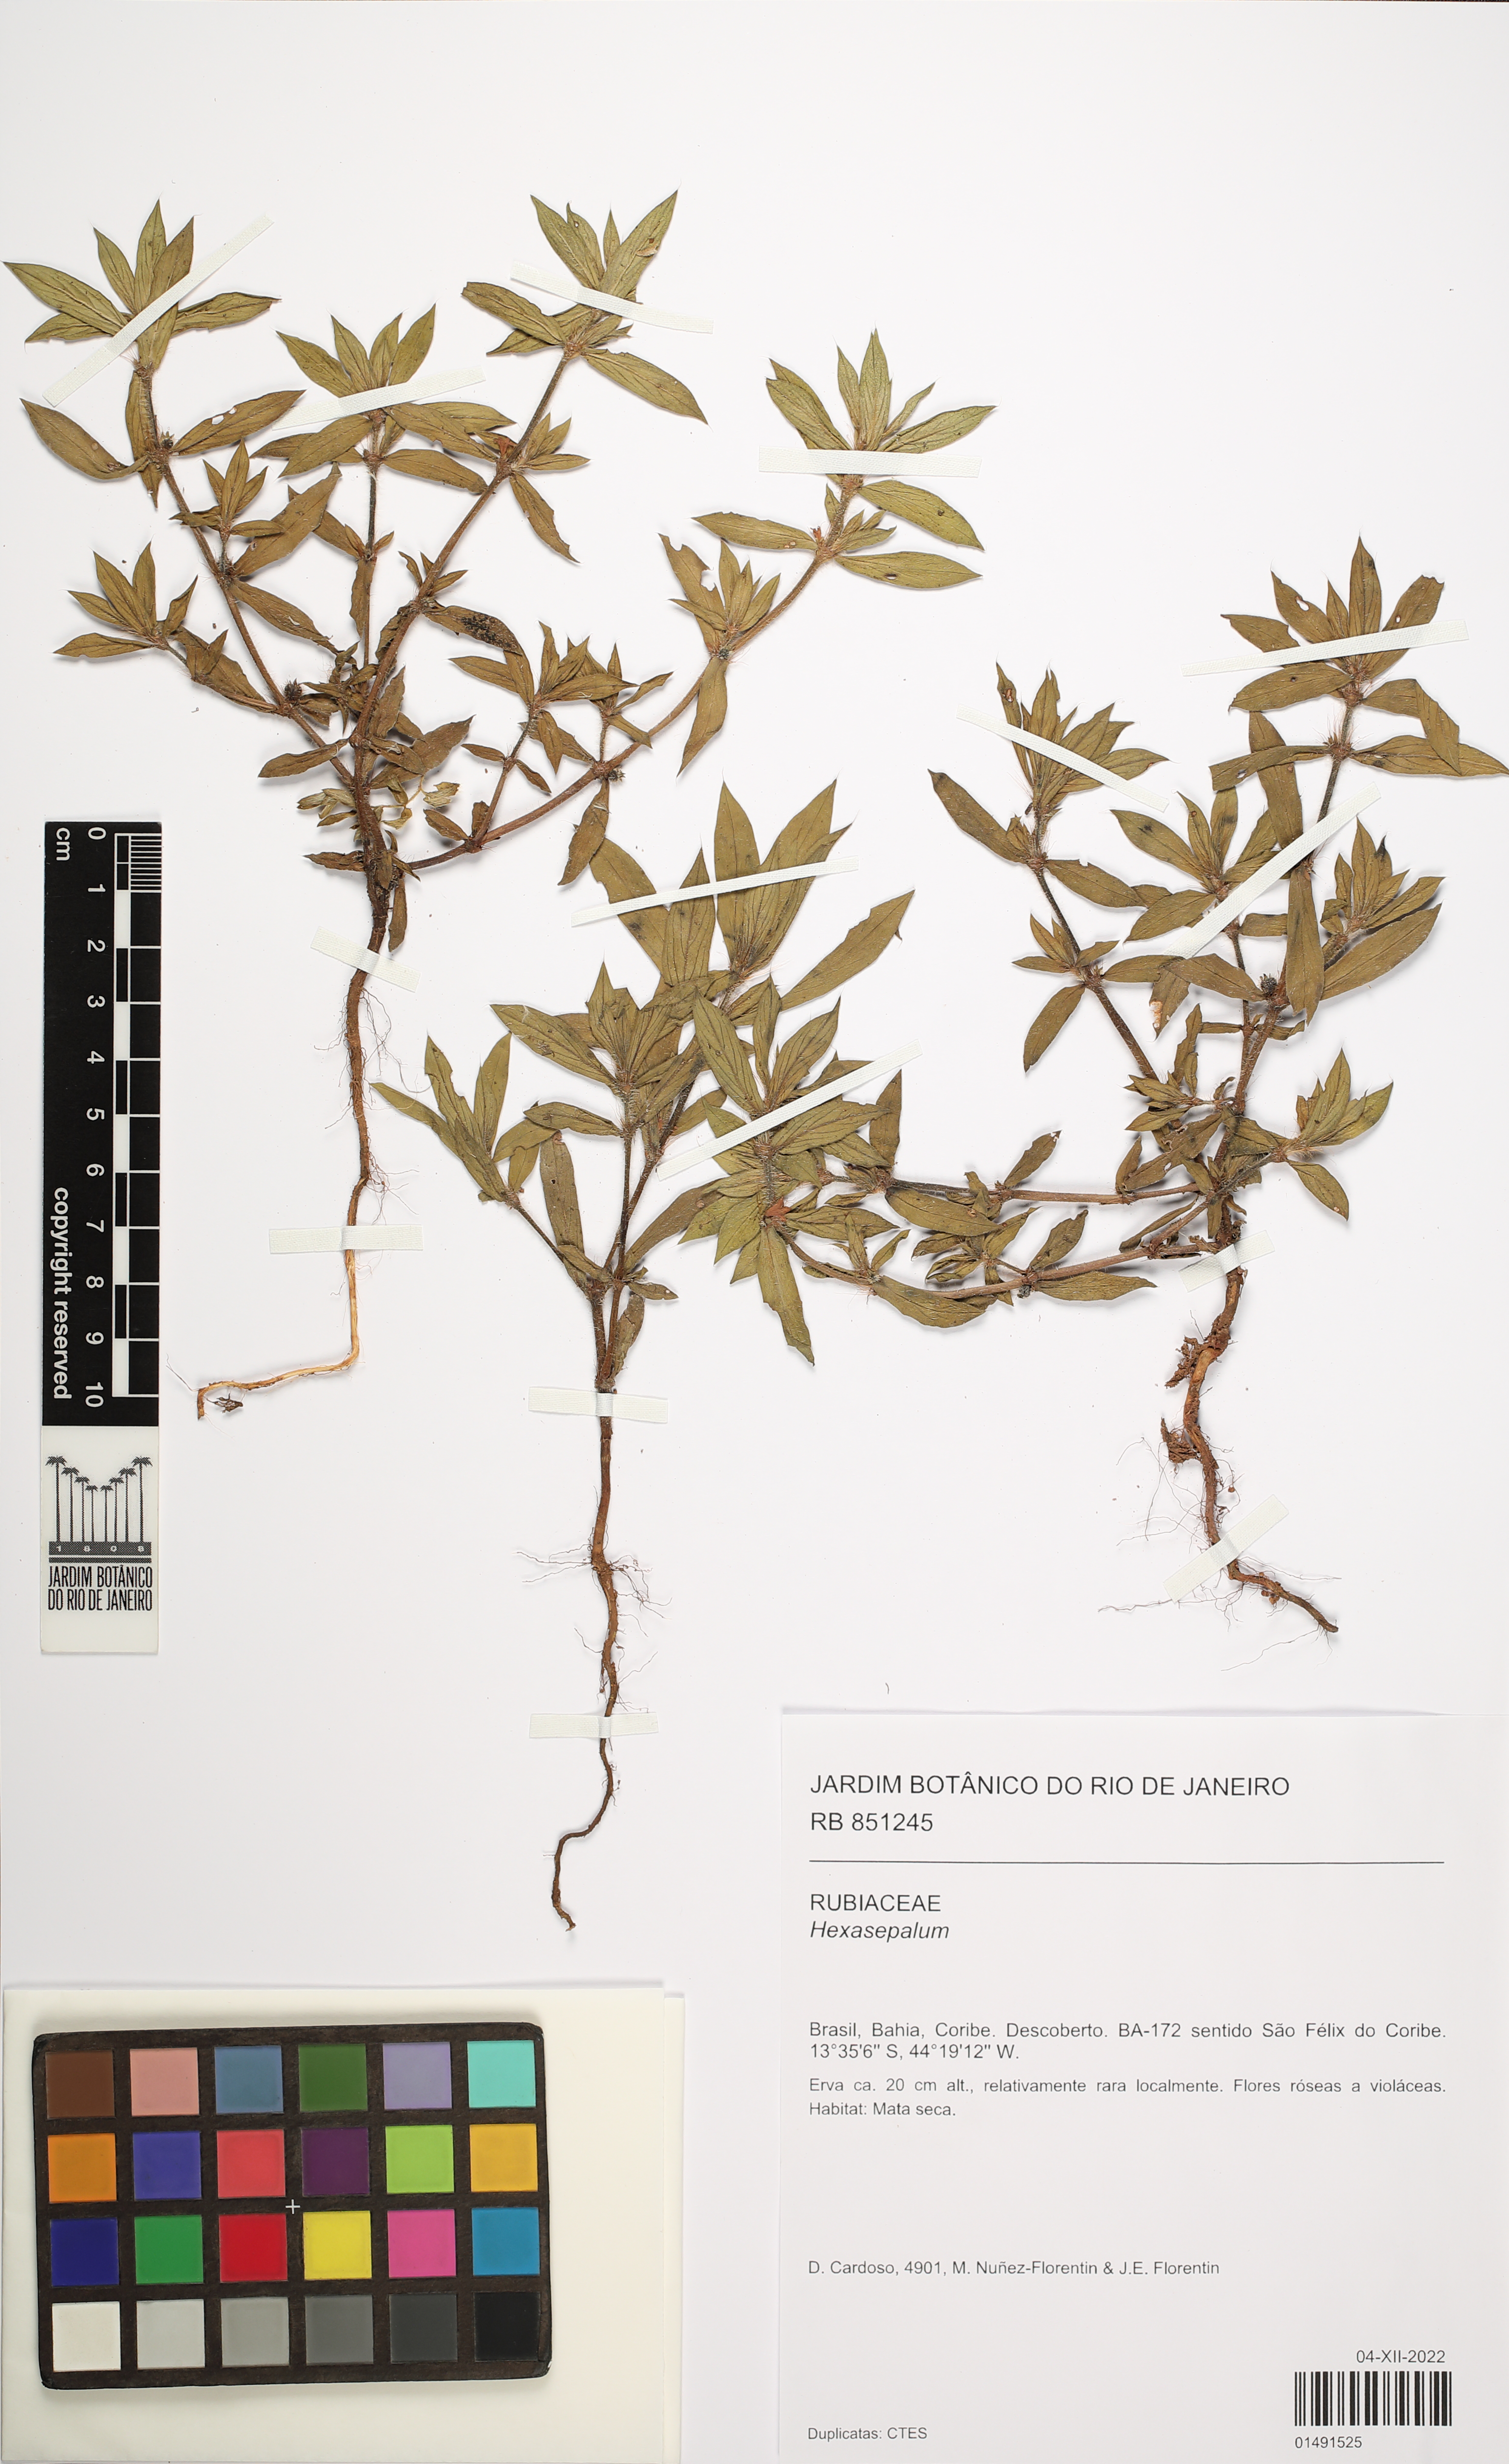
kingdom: Plantae
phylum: Tracheophyta
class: Magnoliopsida
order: Gentianales
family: Rubiaceae
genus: Hexasepalum
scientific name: Hexasepalum
